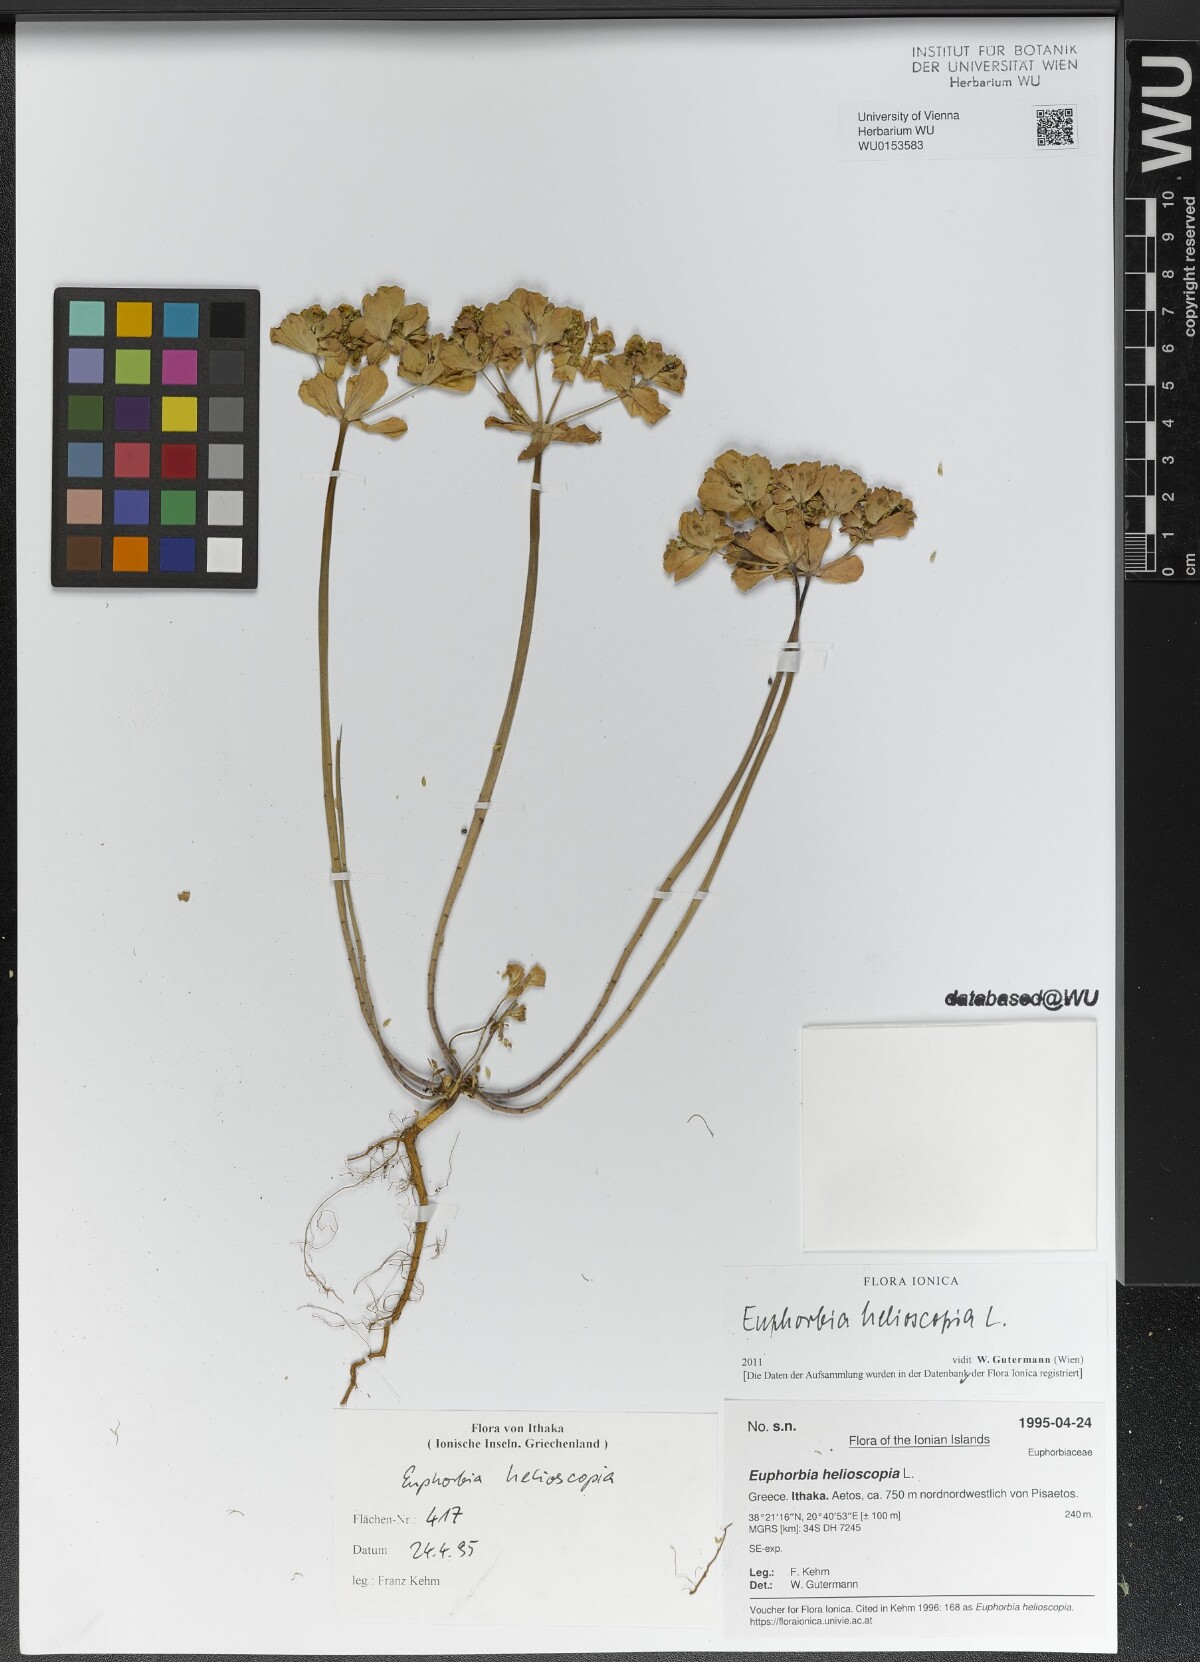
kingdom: Plantae
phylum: Tracheophyta
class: Magnoliopsida
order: Malpighiales
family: Euphorbiaceae
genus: Euphorbia
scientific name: Euphorbia helioscopia
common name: Sun spurge
